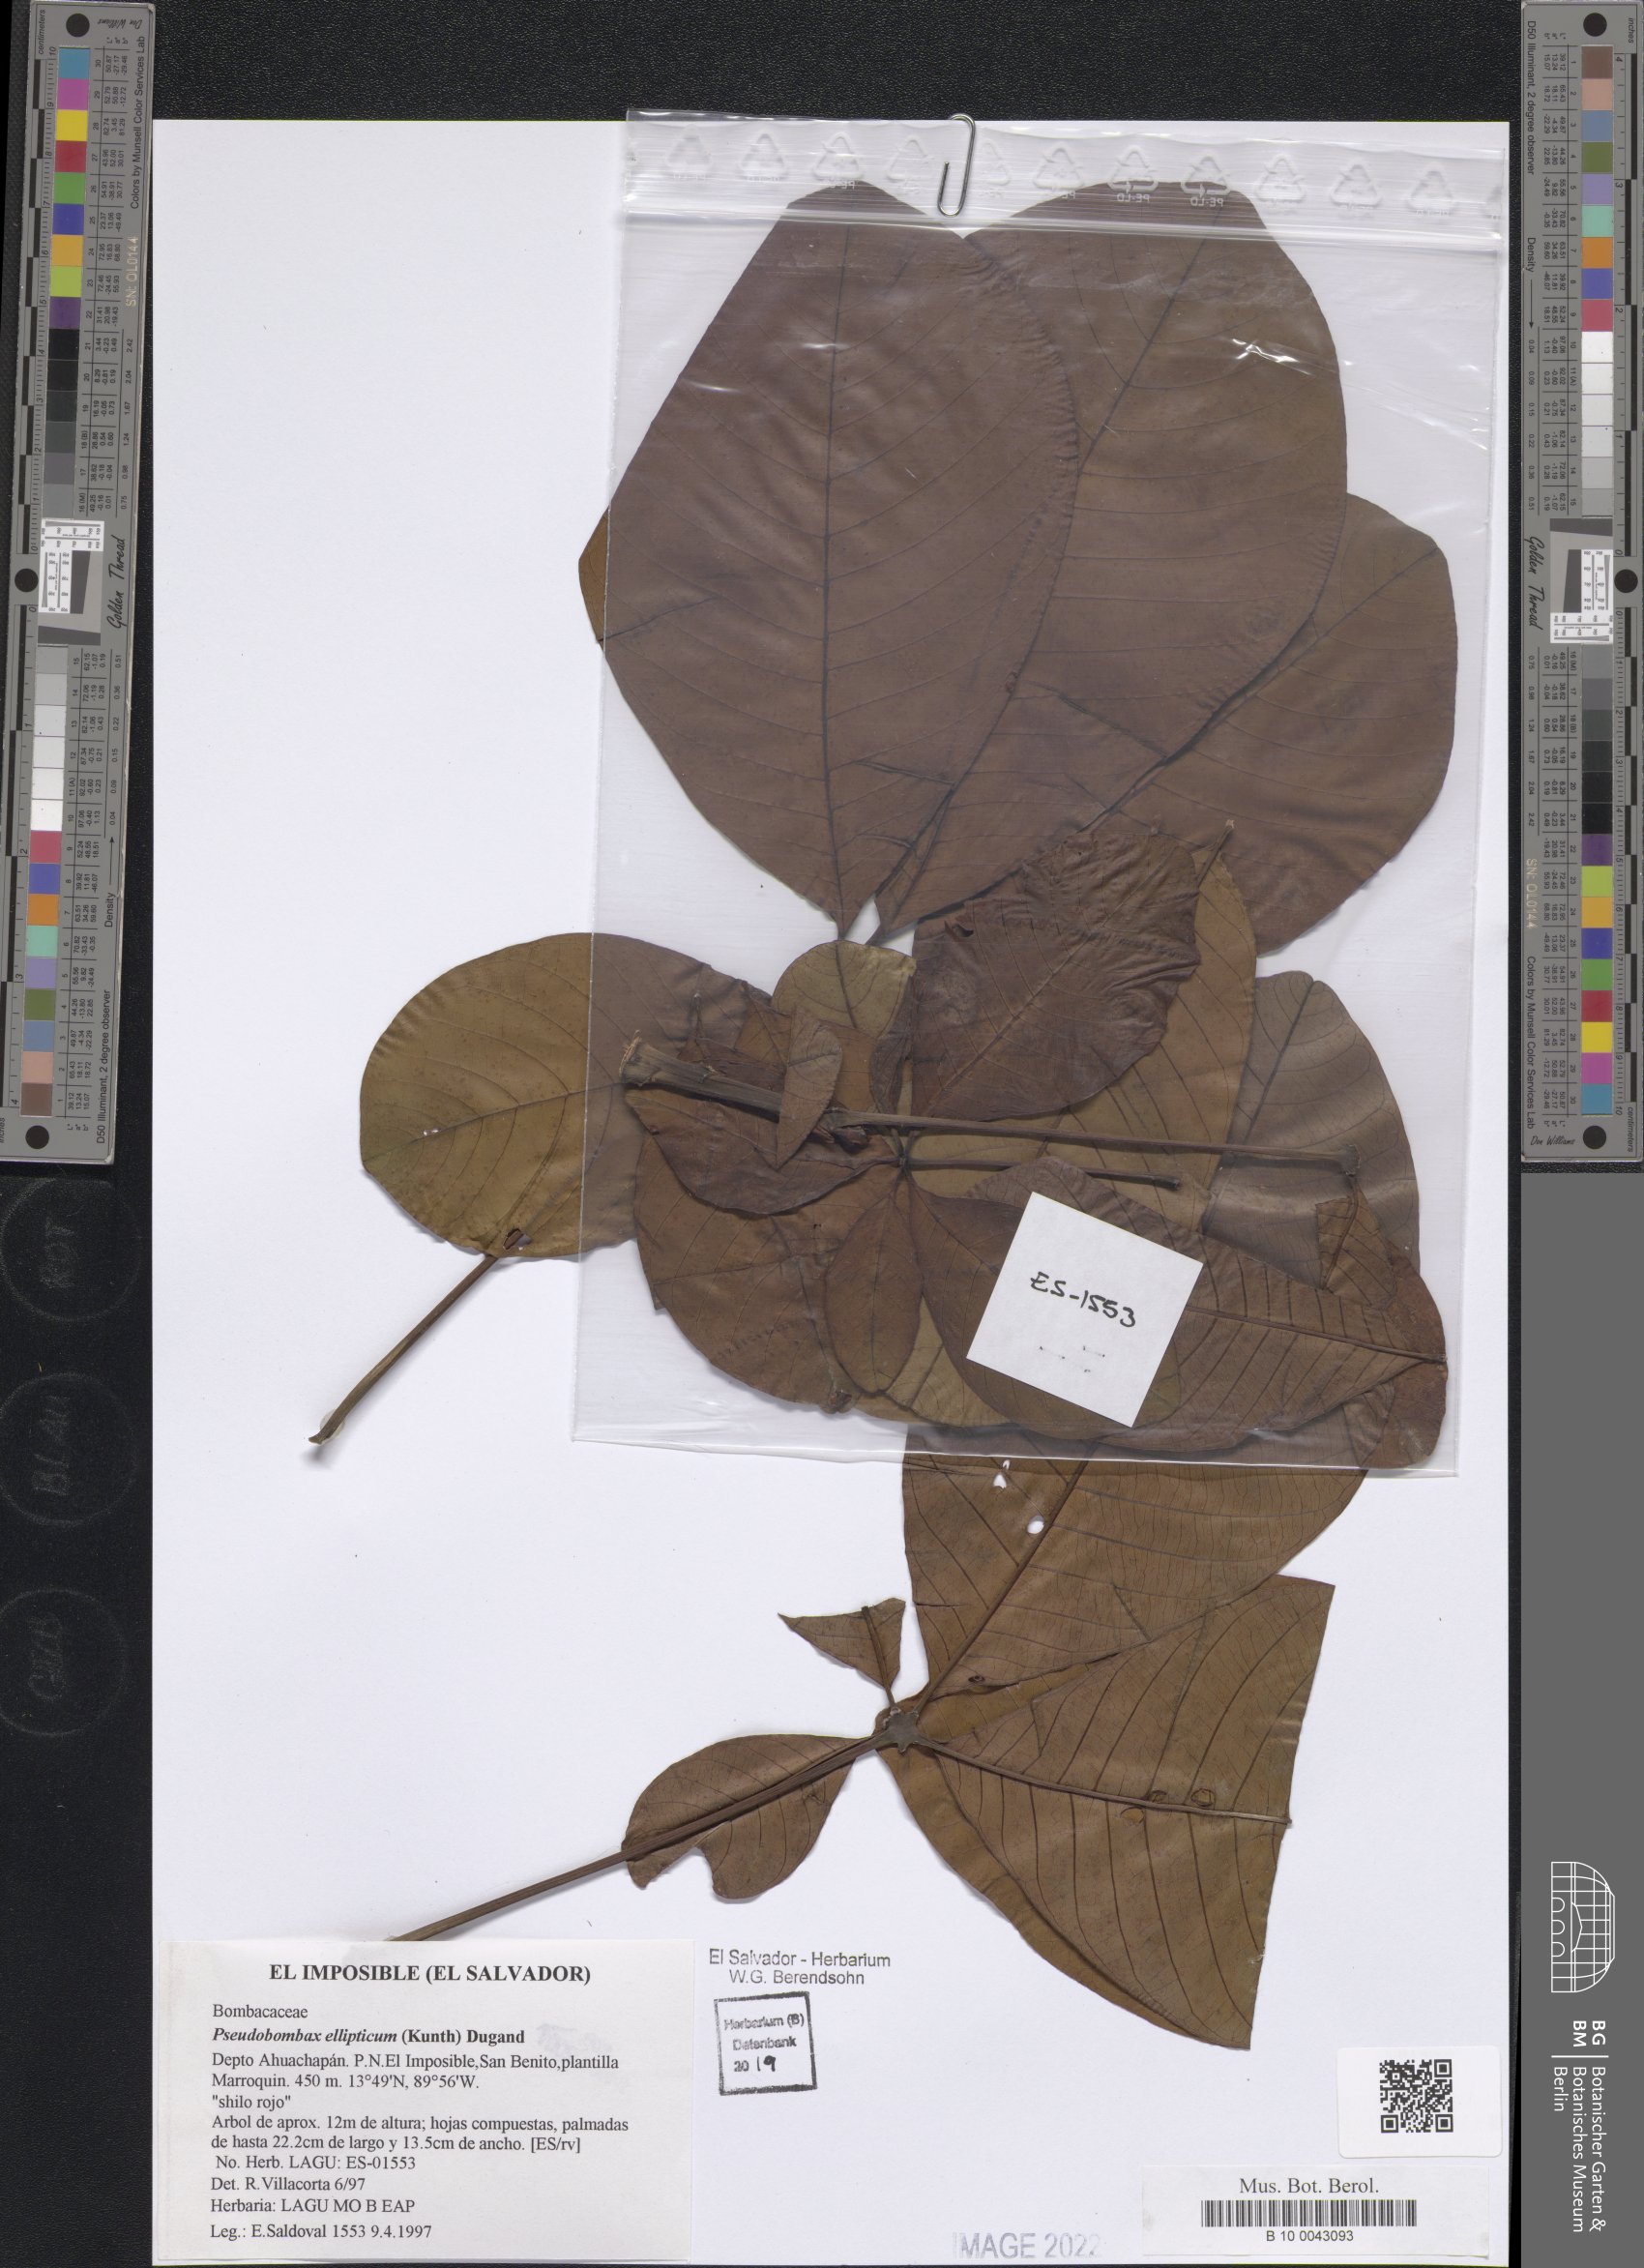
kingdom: Plantae
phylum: Tracheophyta
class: Magnoliopsida
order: Malvales
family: Malvaceae
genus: Pseudobombax
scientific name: Pseudobombax ellipticum
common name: Shaving-brush-tree
